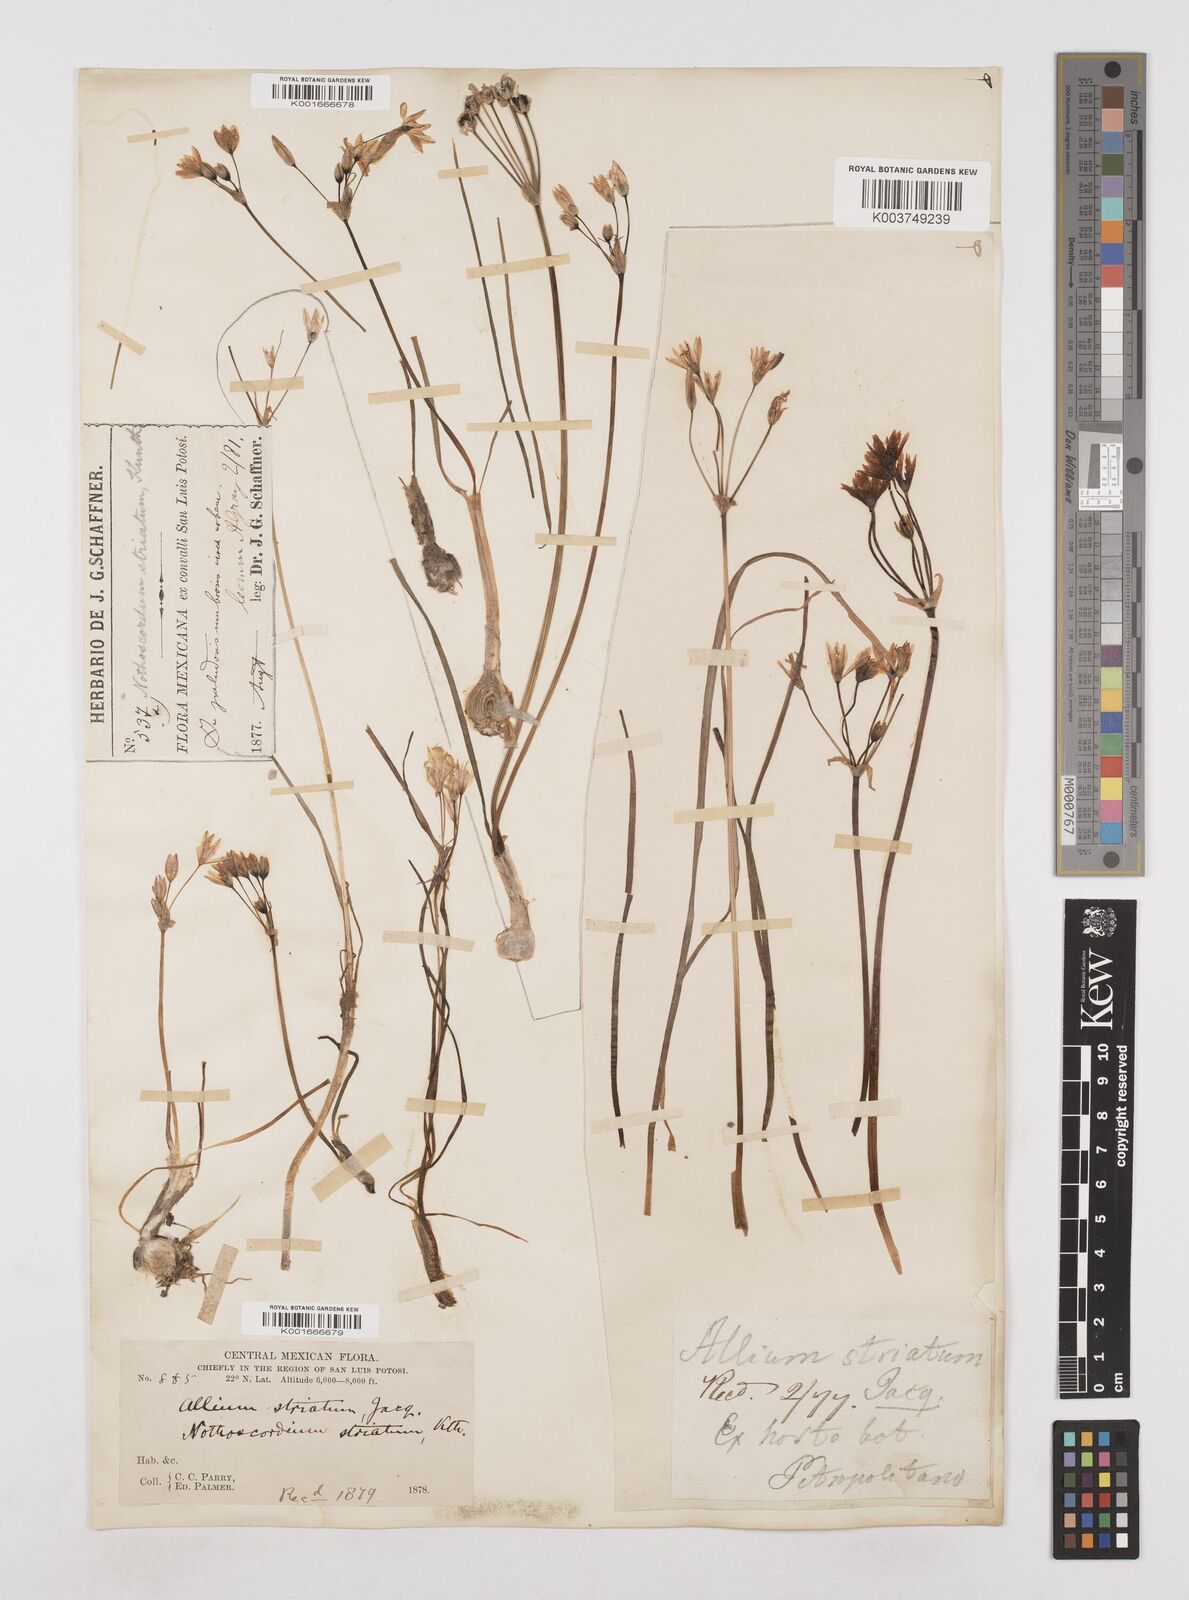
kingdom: Plantae
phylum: Tracheophyta
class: Liliopsida
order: Asparagales
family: Amaryllidaceae
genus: Nothoscordum
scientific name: Nothoscordum bivalve
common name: Crow-poison
